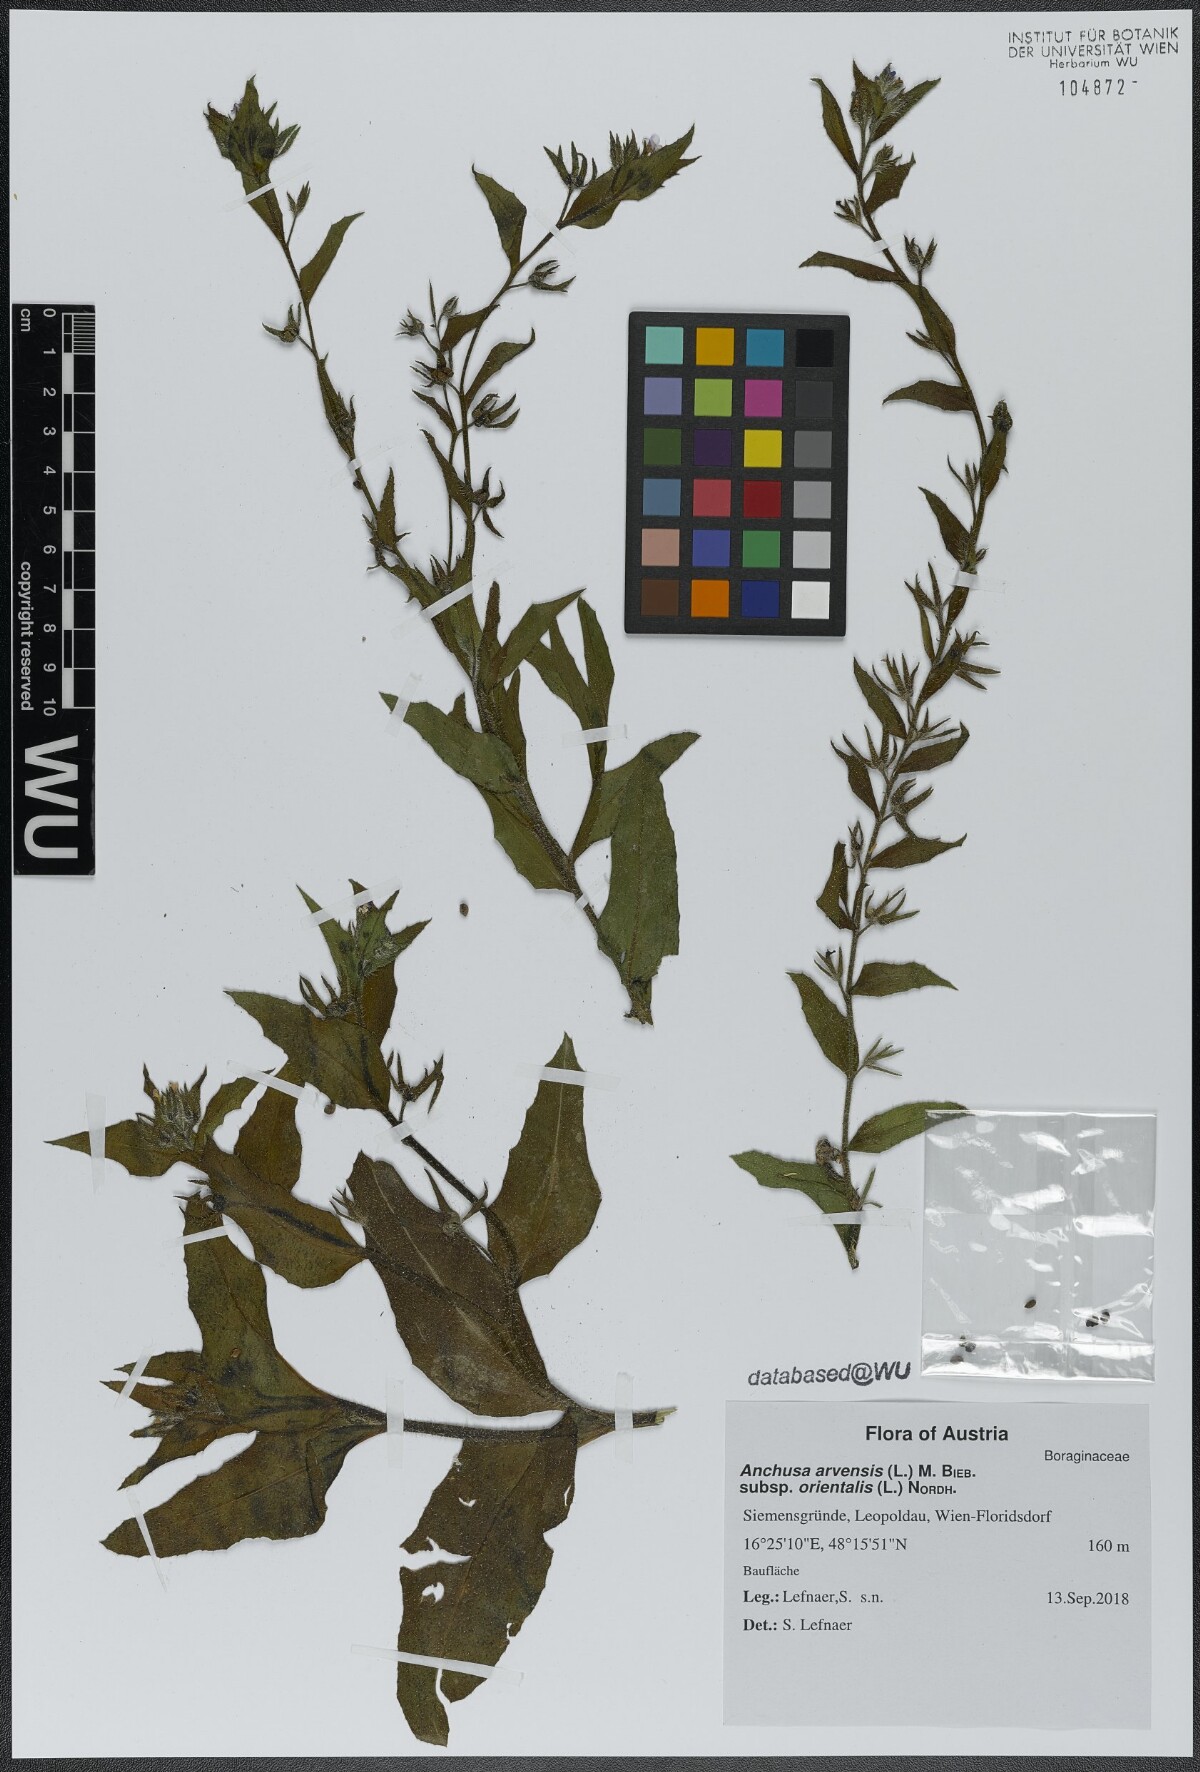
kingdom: Plantae
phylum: Tracheophyta
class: Magnoliopsida
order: Boraginales
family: Boraginaceae
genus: Lycopsis
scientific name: Lycopsis arvensis
